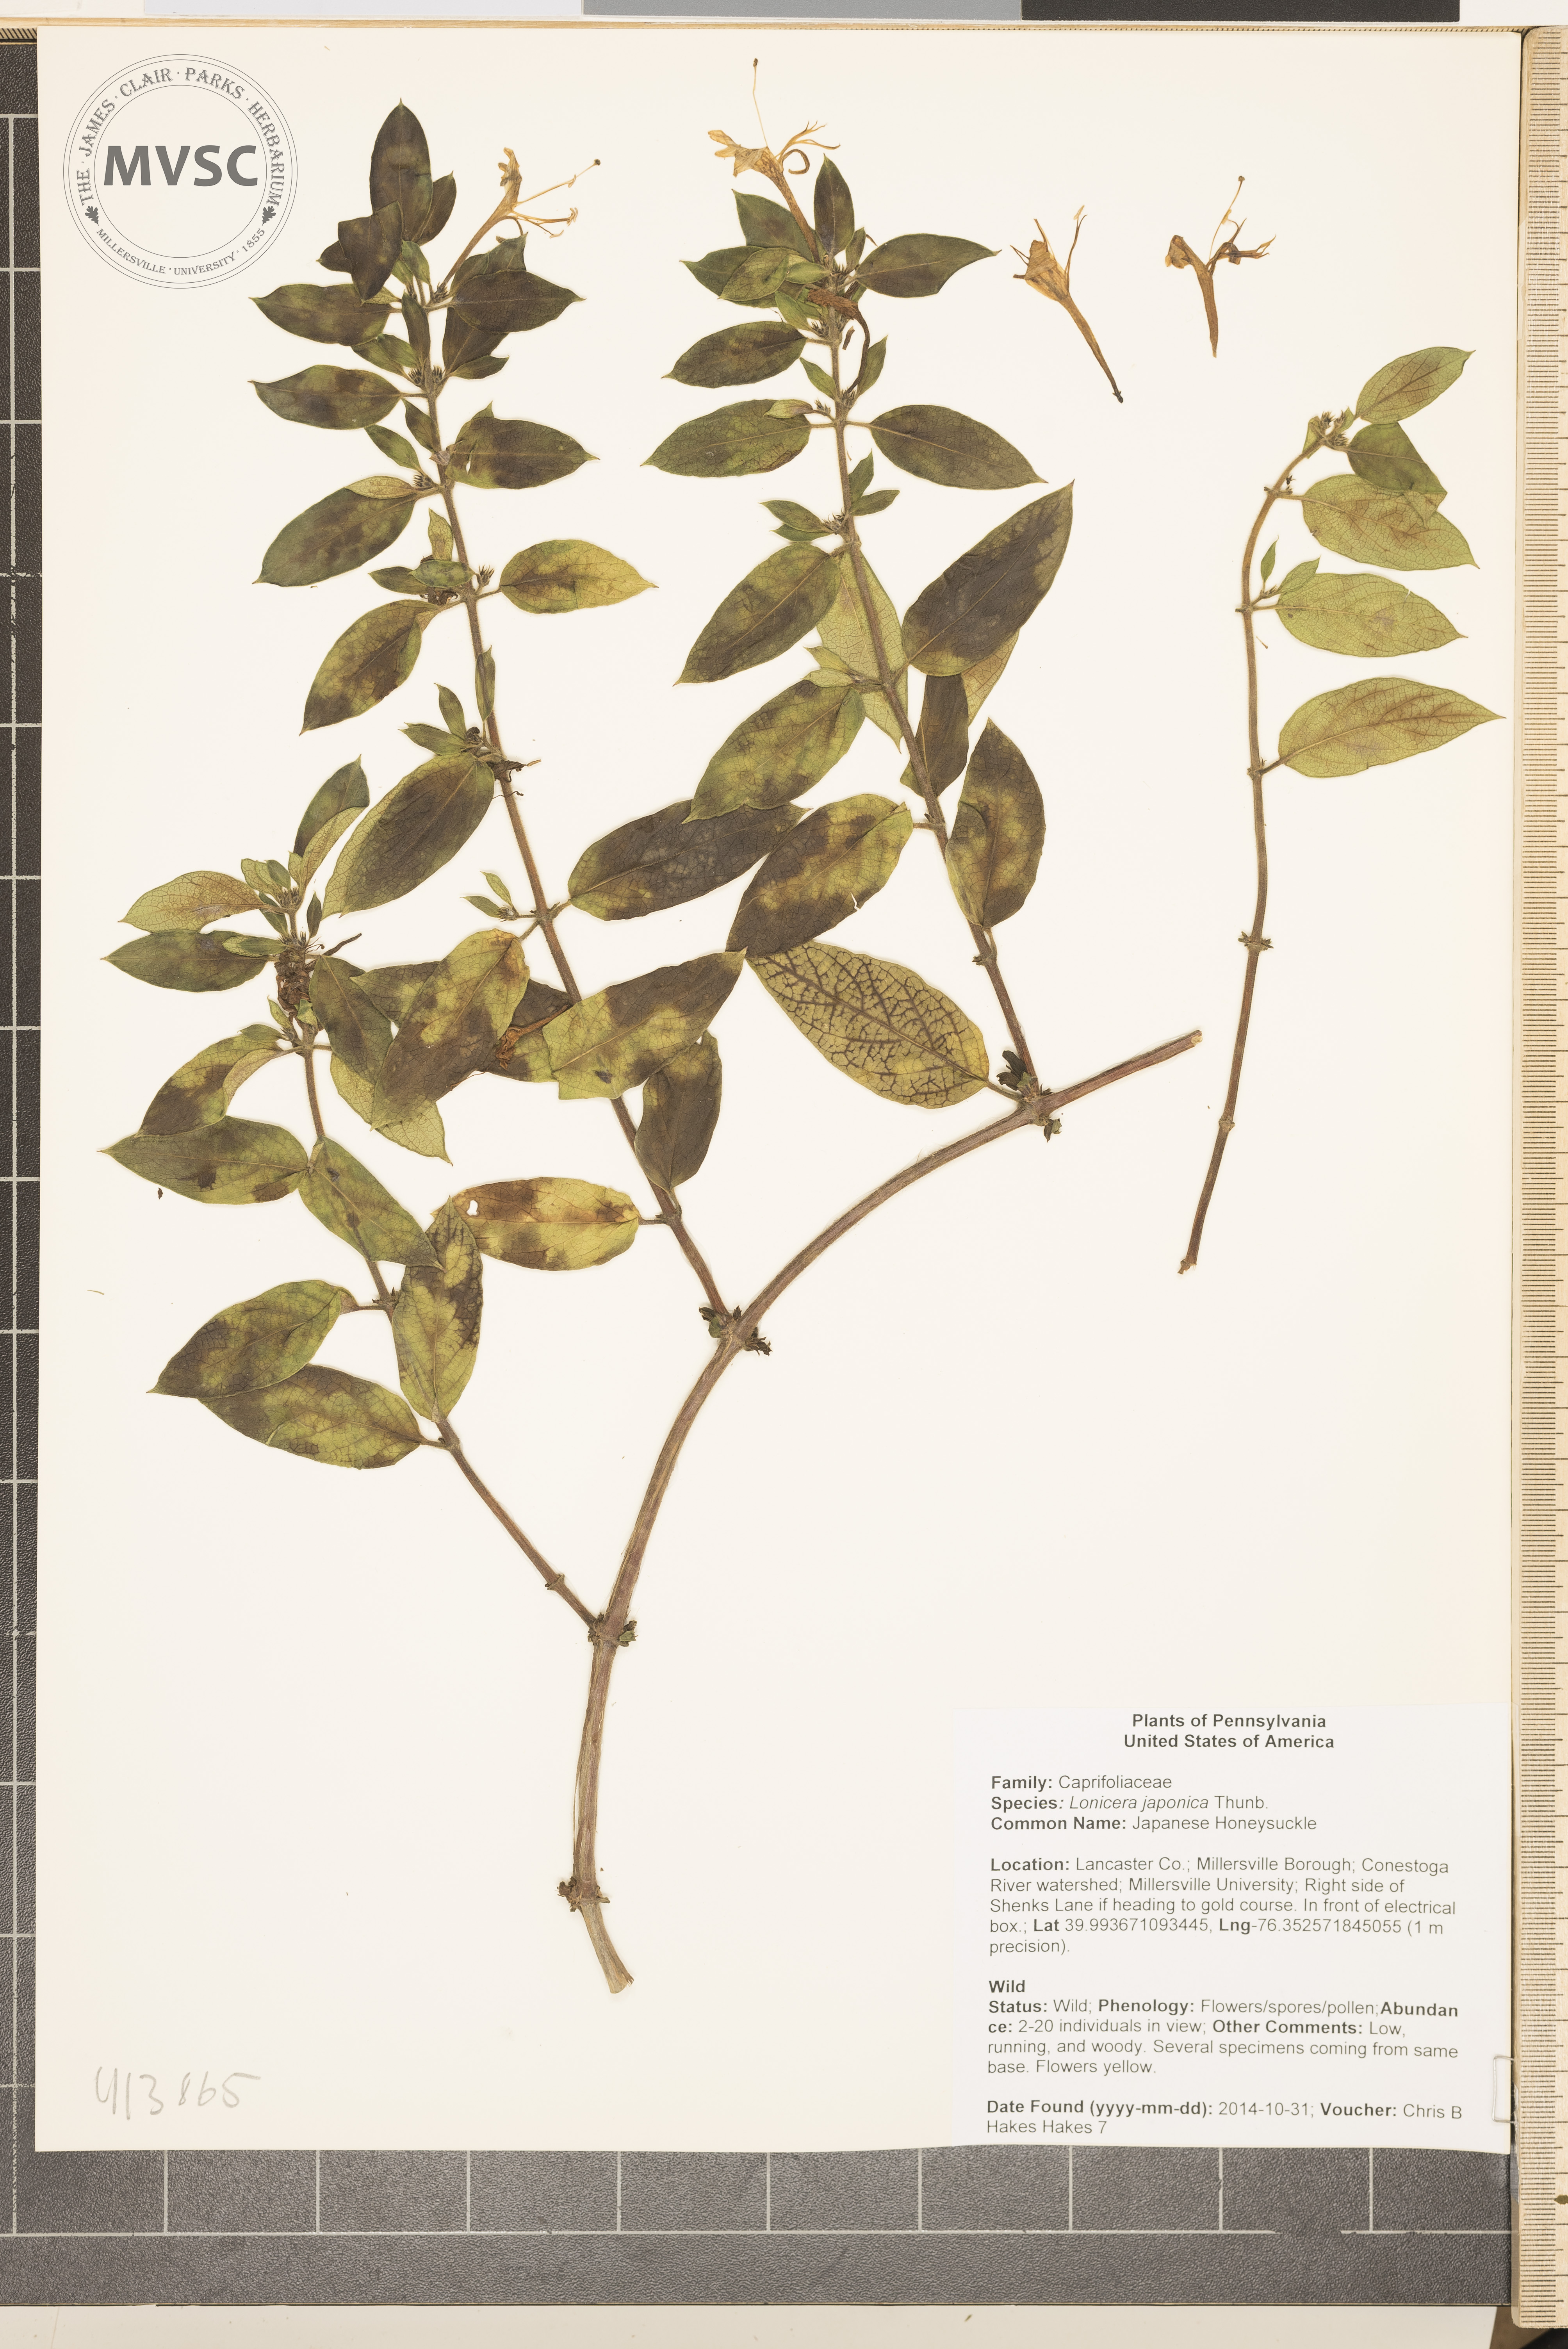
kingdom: Plantae
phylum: Tracheophyta
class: Magnoliopsida
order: Dipsacales
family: Caprifoliaceae
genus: Lonicera
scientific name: Lonicera japonica
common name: Japanese Honeysuckle
